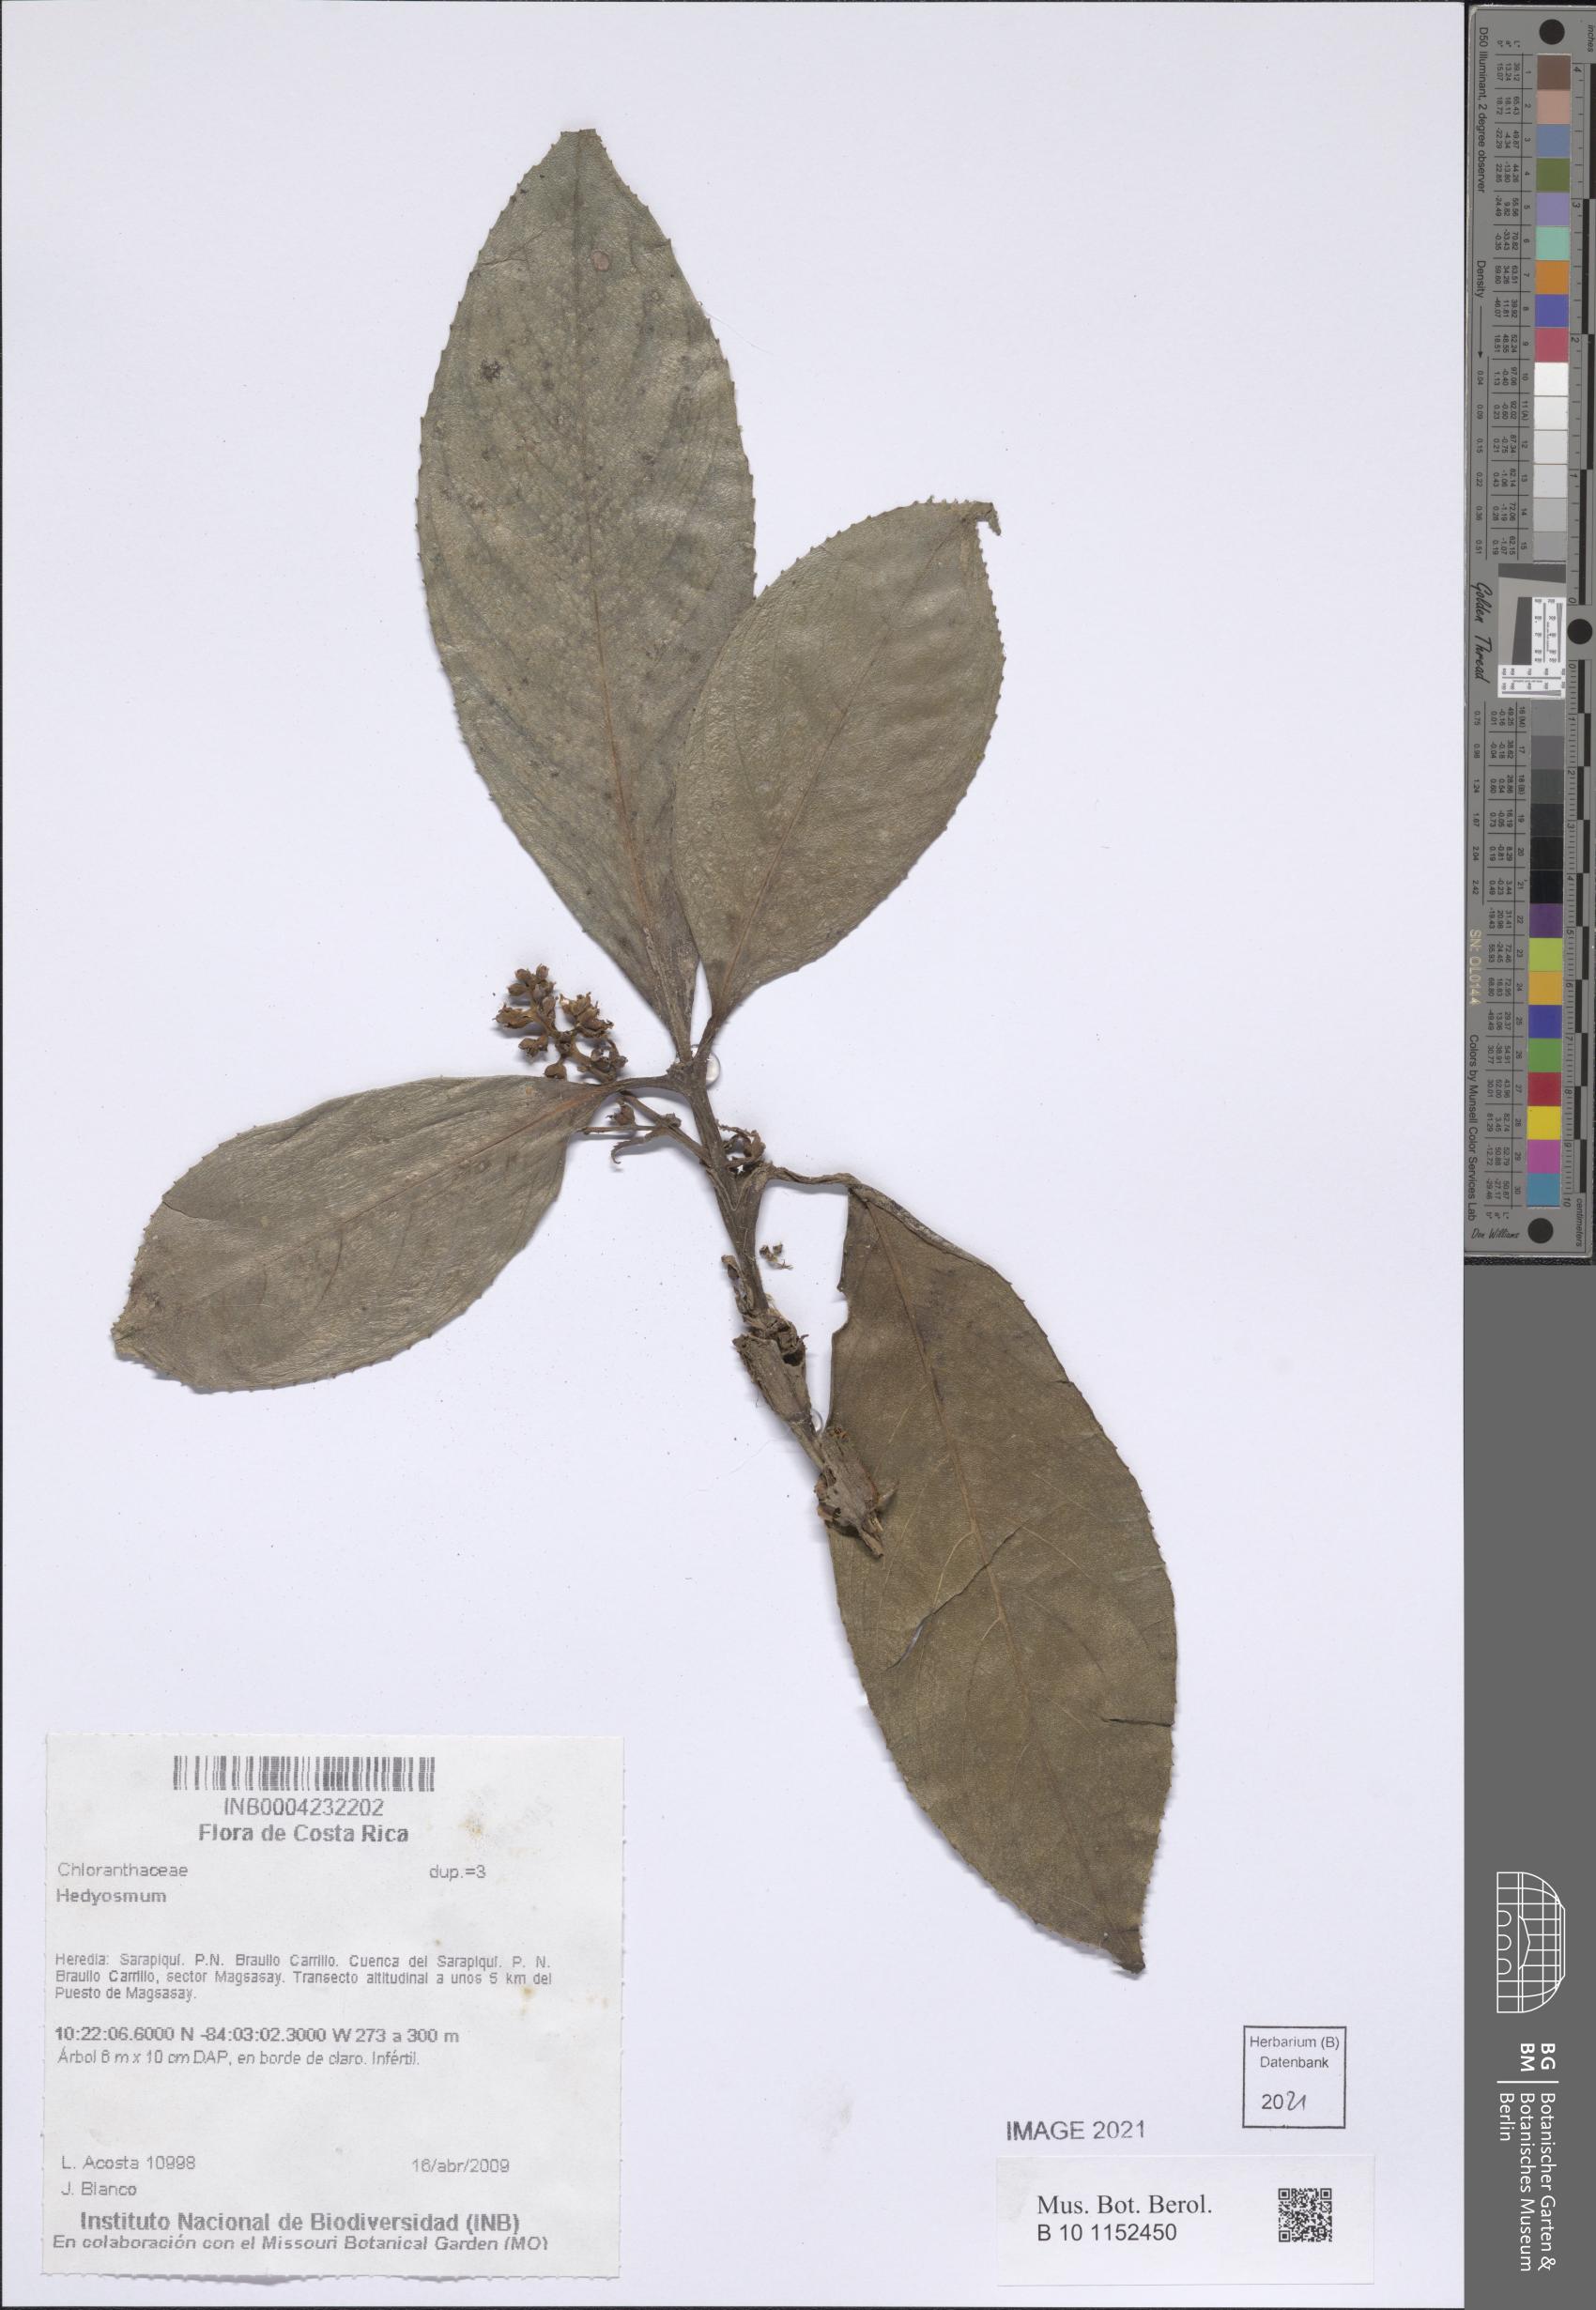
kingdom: Plantae
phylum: Tracheophyta
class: Magnoliopsida
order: Chloranthales
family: Chloranthaceae
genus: Hedyosmum
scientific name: Hedyosmum
